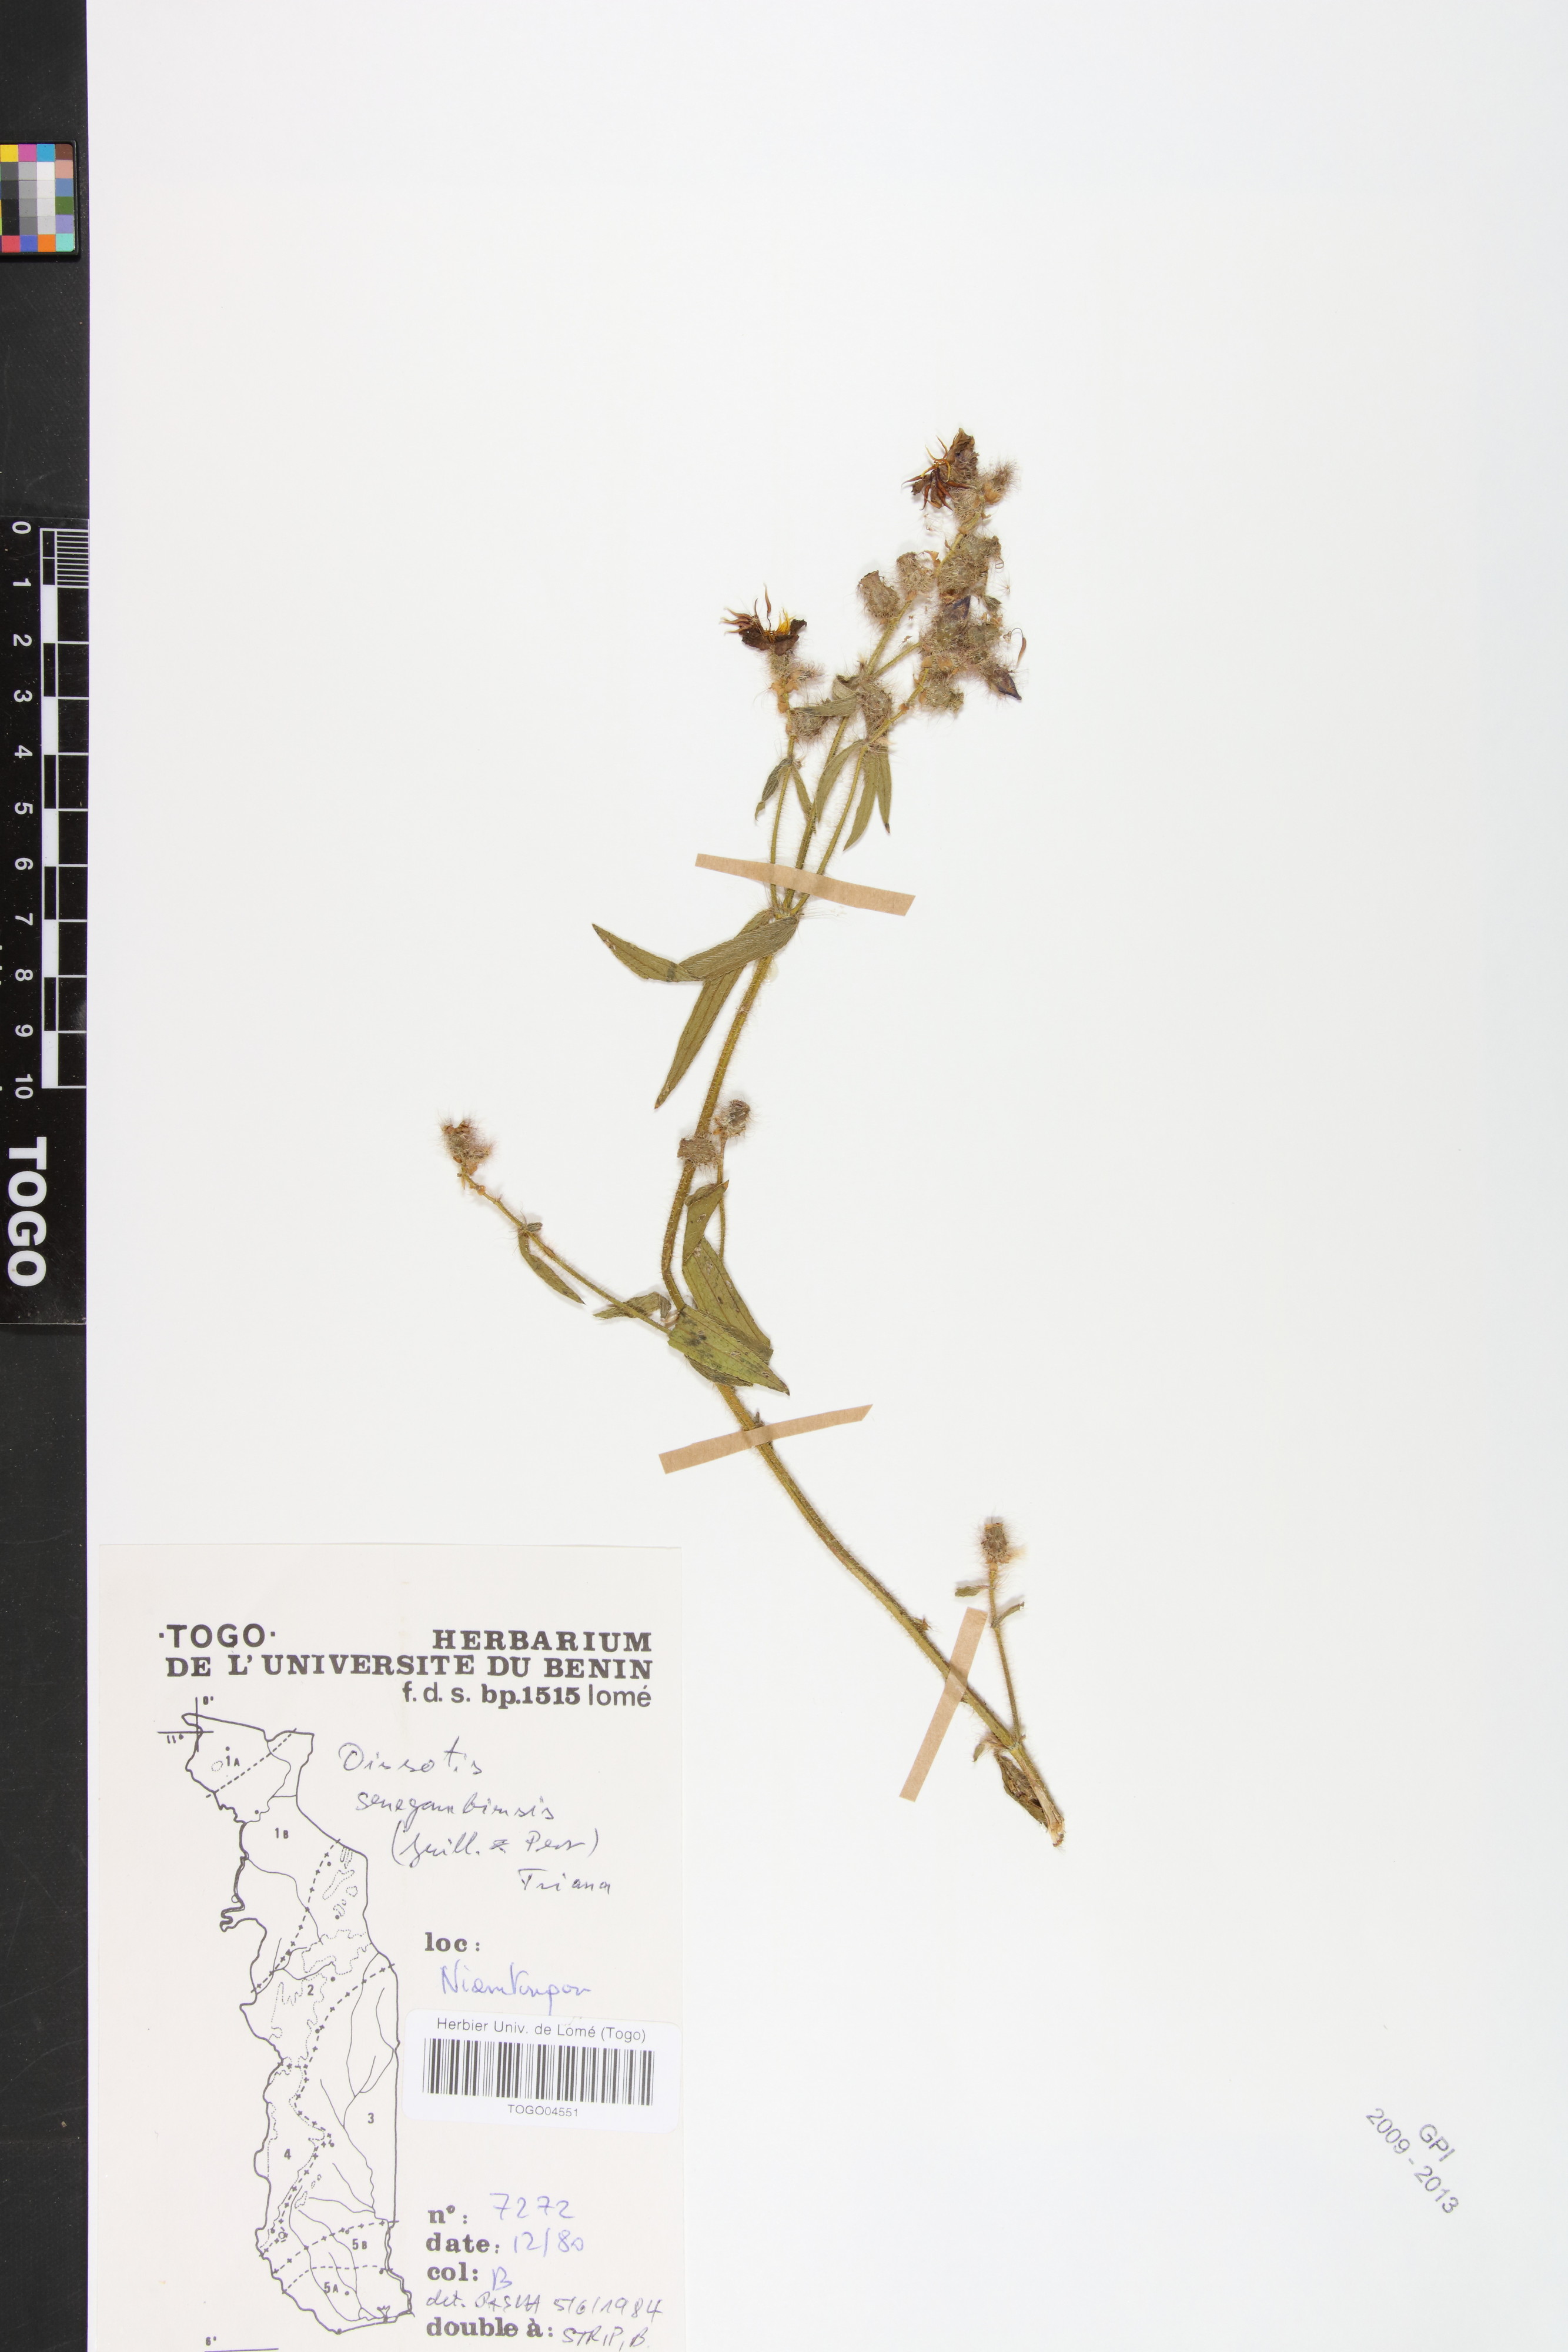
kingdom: Plantae
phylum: Tracheophyta
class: Magnoliopsida
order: Myrtales
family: Melastomataceae
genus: Antherotoma
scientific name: Antherotoma irvingiana
